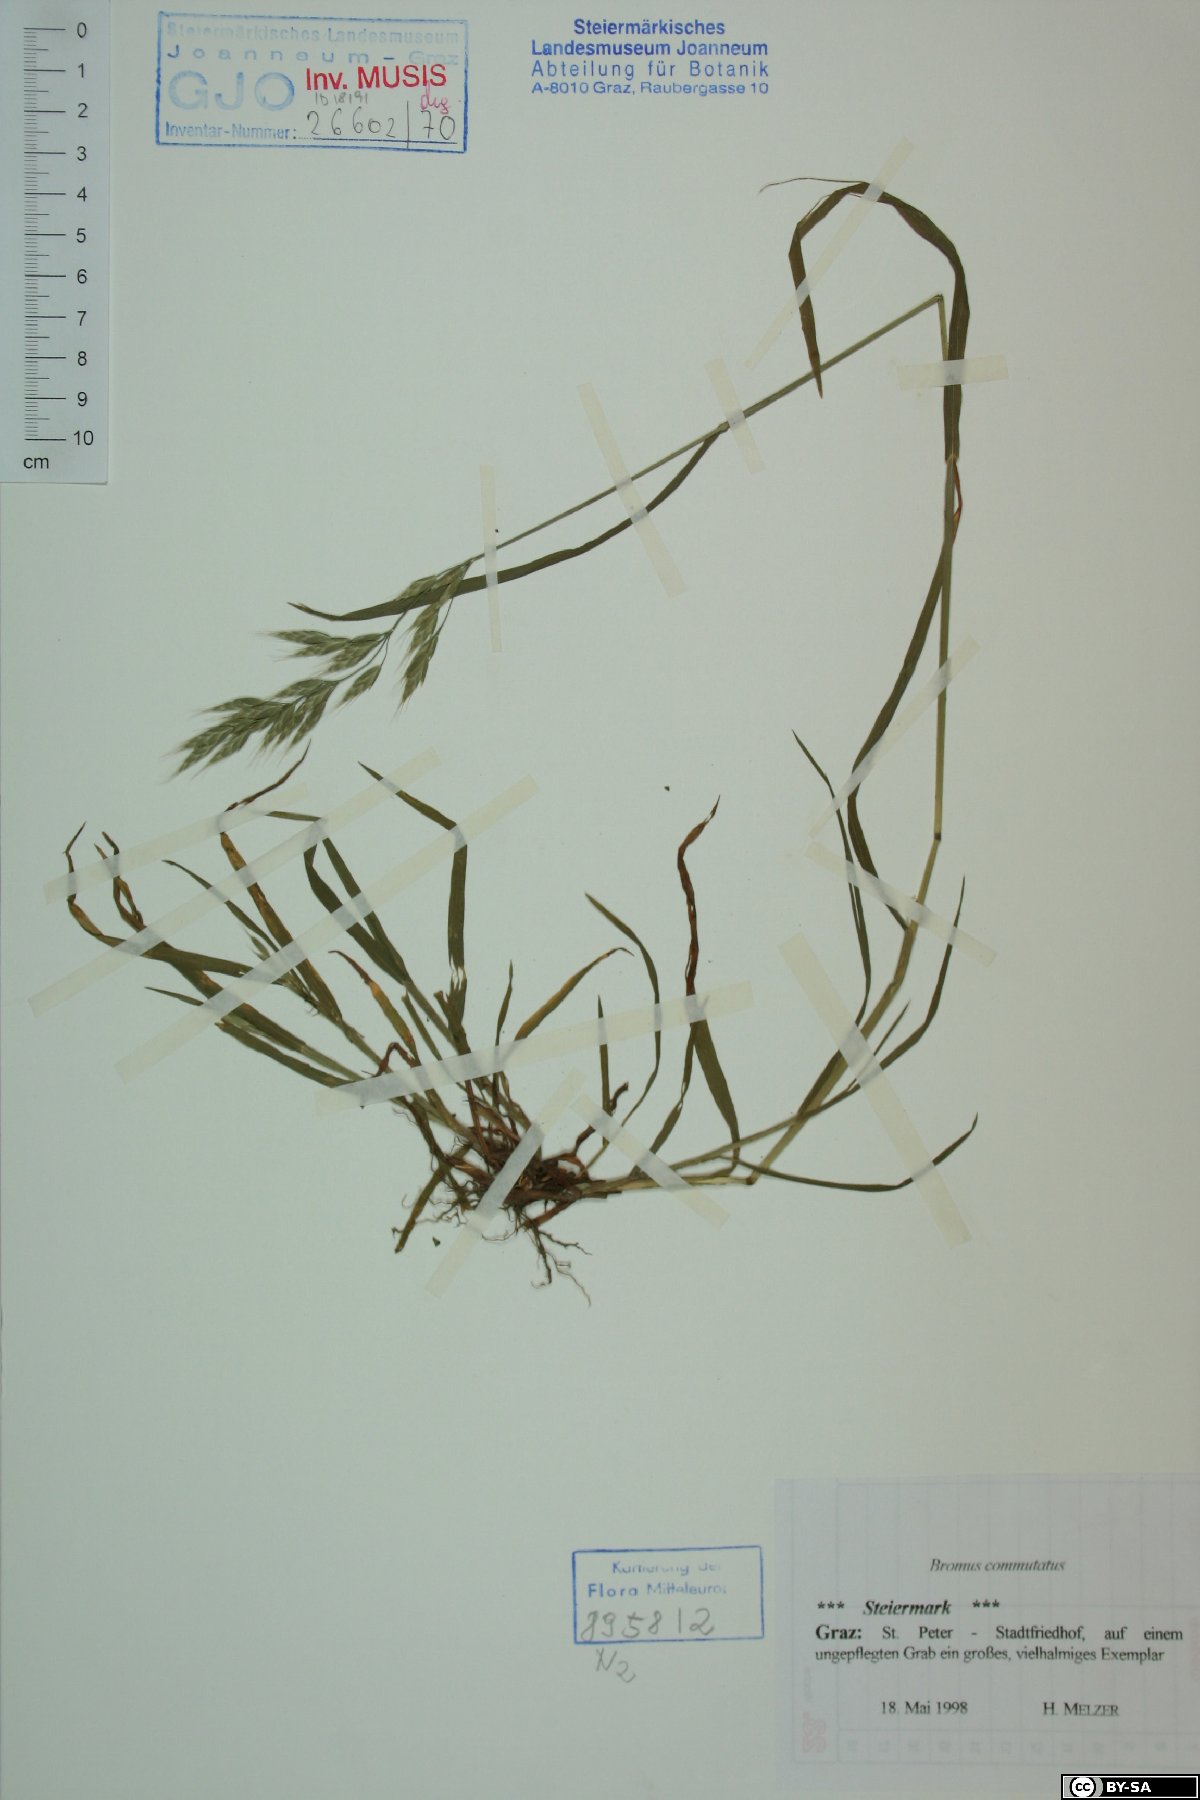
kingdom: Plantae
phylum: Tracheophyta
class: Liliopsida
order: Poales
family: Poaceae
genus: Bromus
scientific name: Bromus commutatus
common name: Meadow brome
